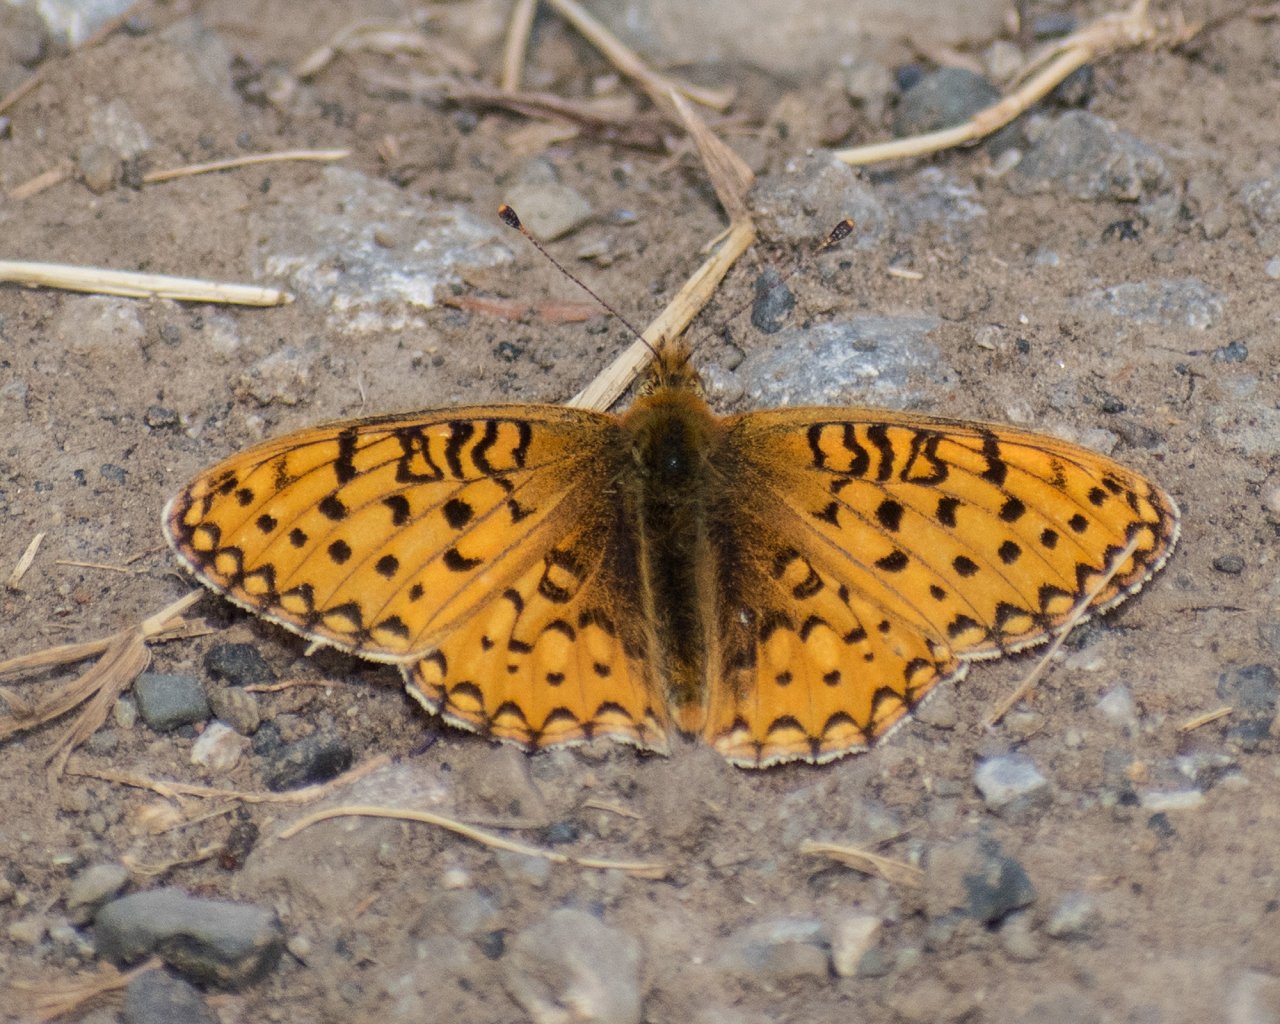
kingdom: Animalia
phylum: Arthropoda
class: Insecta
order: Lepidoptera
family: Nymphalidae
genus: Speyeria
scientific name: Speyeria mormonia
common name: Mormon Fritillary
